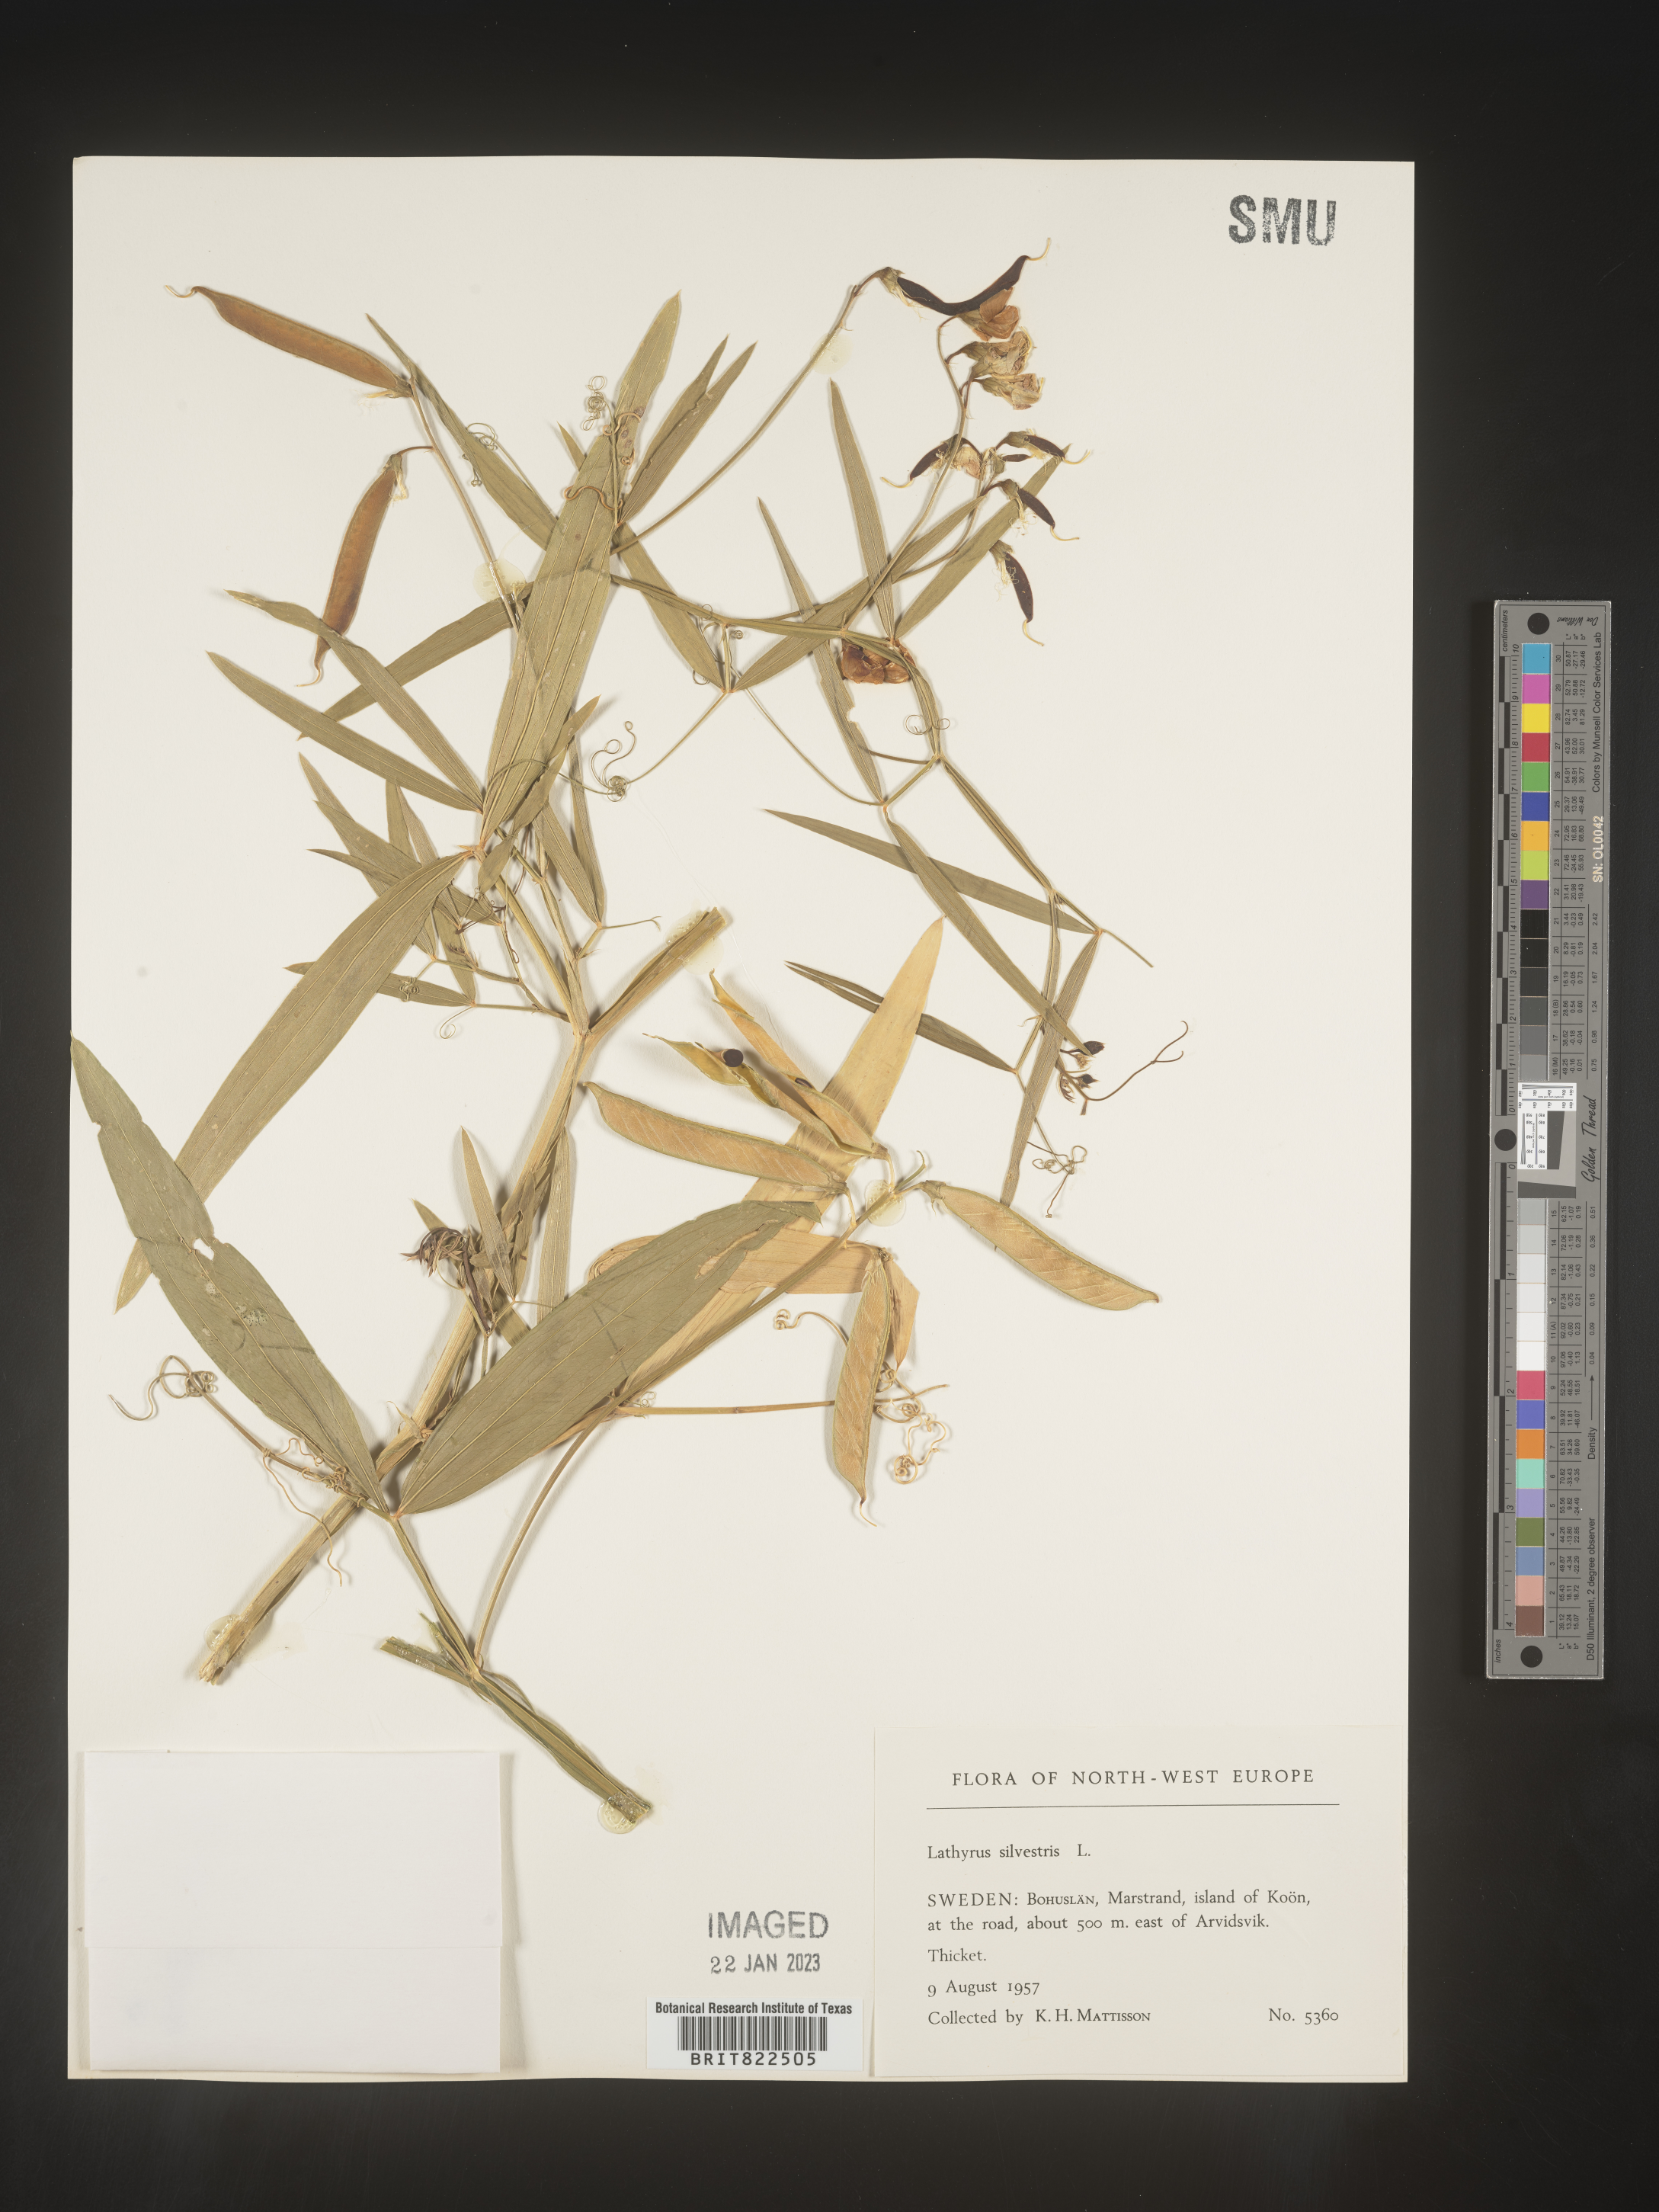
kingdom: Plantae
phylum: Tracheophyta
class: Magnoliopsida
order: Fabales
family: Fabaceae
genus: Lathyrus
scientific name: Lathyrus
